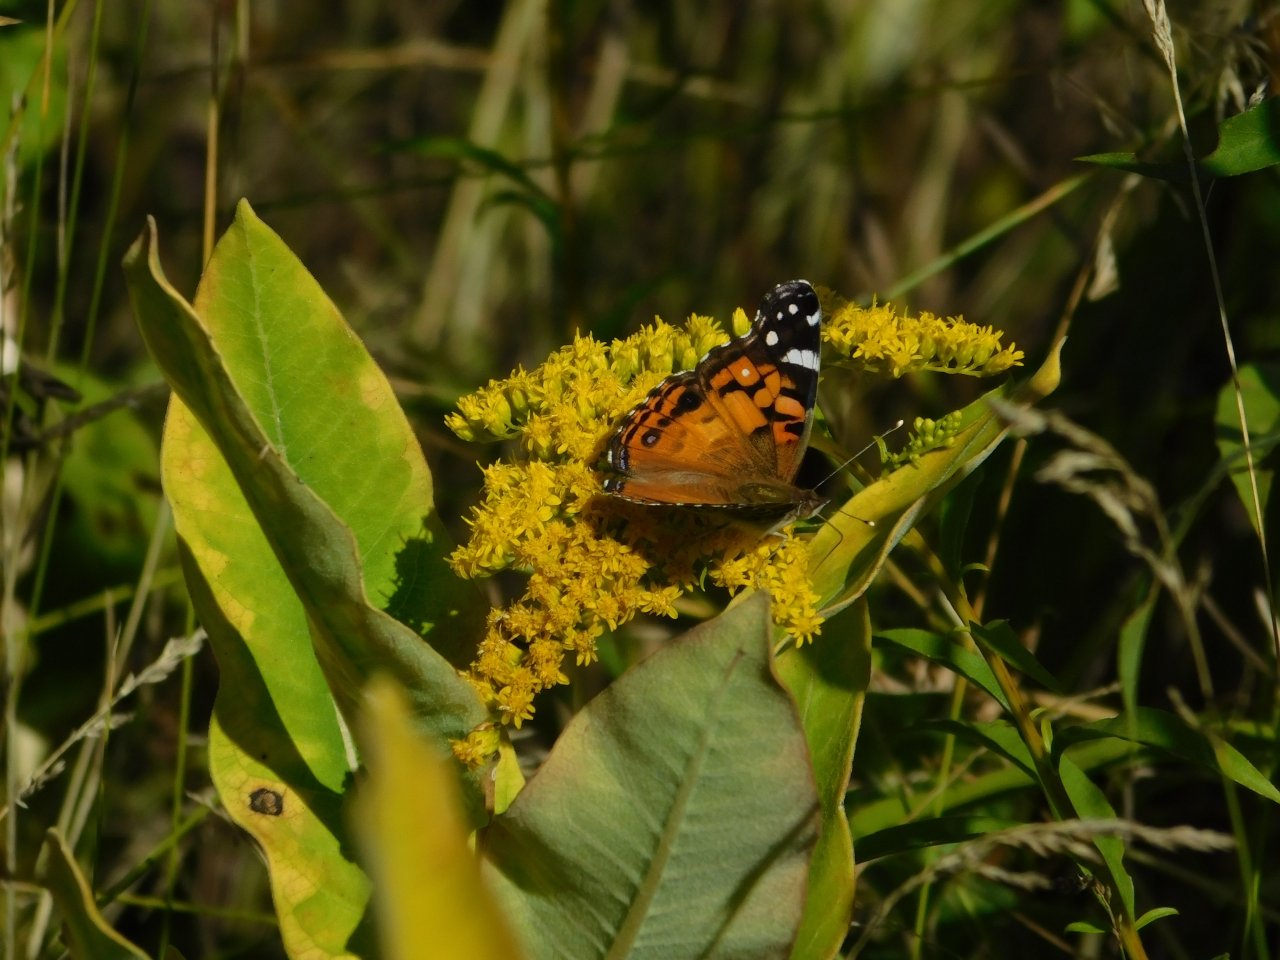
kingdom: Animalia
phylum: Arthropoda
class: Insecta
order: Lepidoptera
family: Nymphalidae
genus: Vanessa
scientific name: Vanessa virginiensis
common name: American Lady
